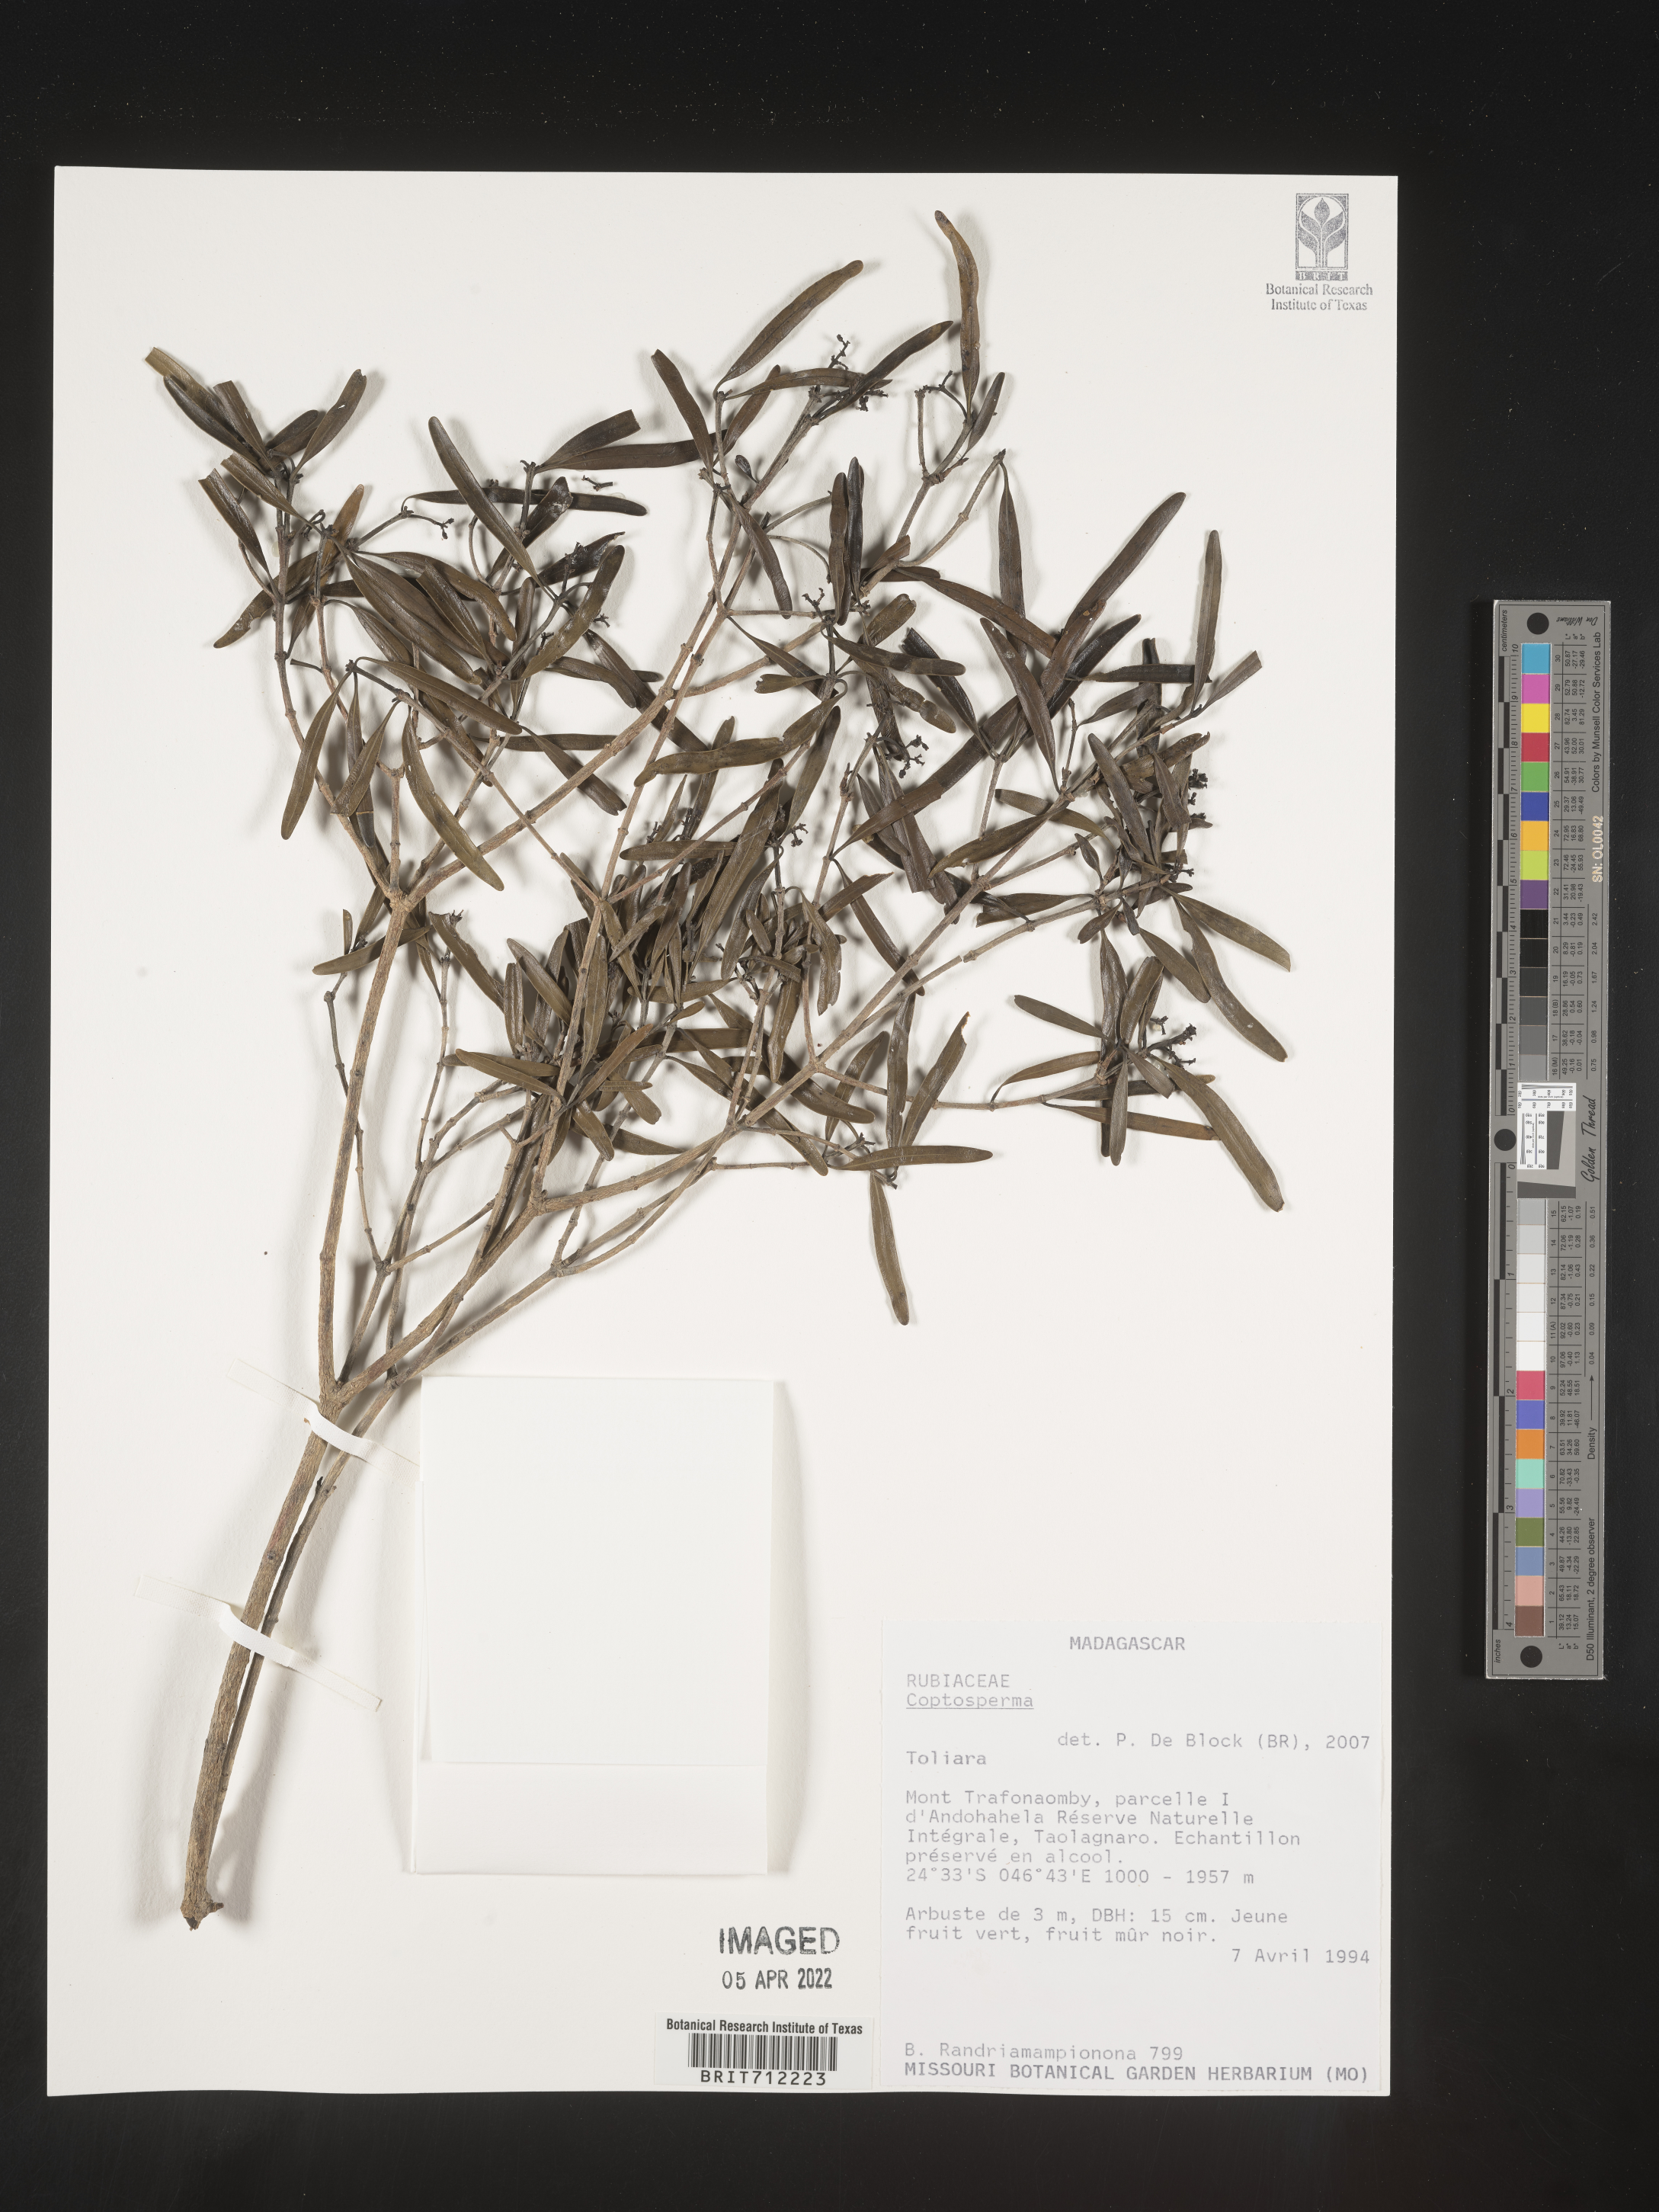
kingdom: Plantae
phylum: Tracheophyta
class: Magnoliopsida
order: Gentianales
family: Rubiaceae
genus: Coptosperma
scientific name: Coptosperma
